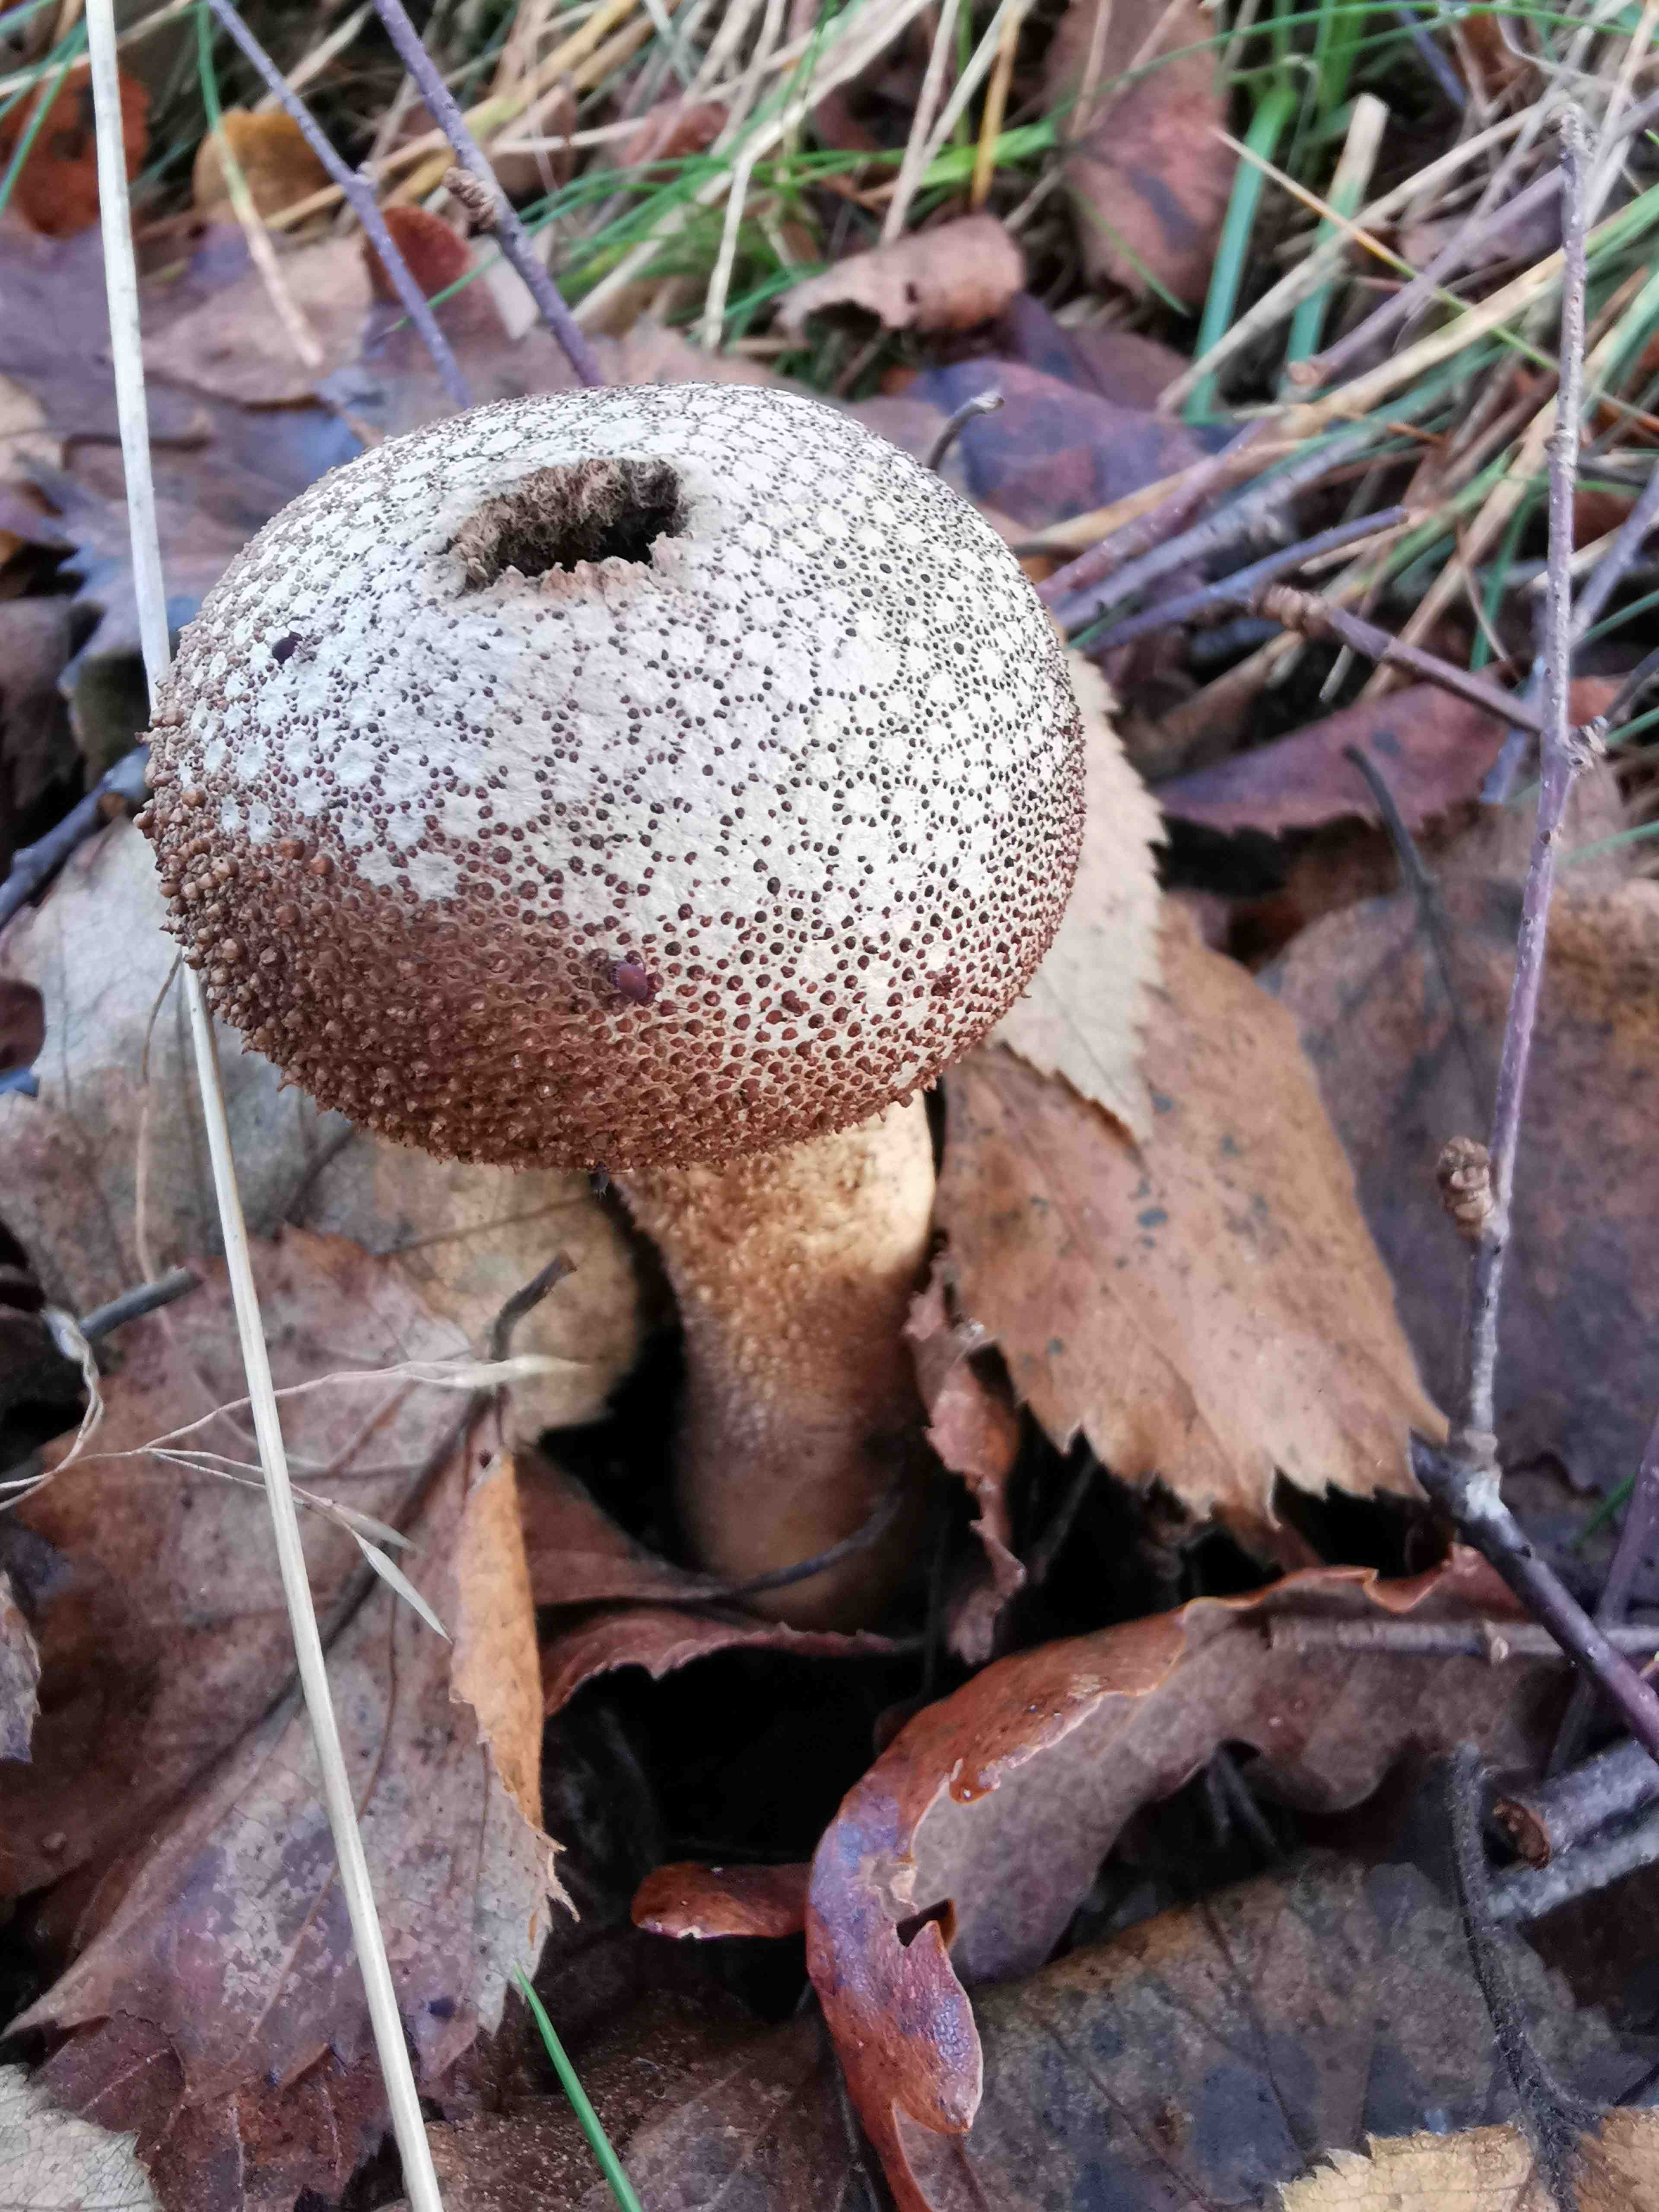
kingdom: Fungi
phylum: Basidiomycota
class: Agaricomycetes
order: Agaricales
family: Lycoperdaceae
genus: Lycoperdon
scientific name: Lycoperdon perlatum
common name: krystal-støvbold
